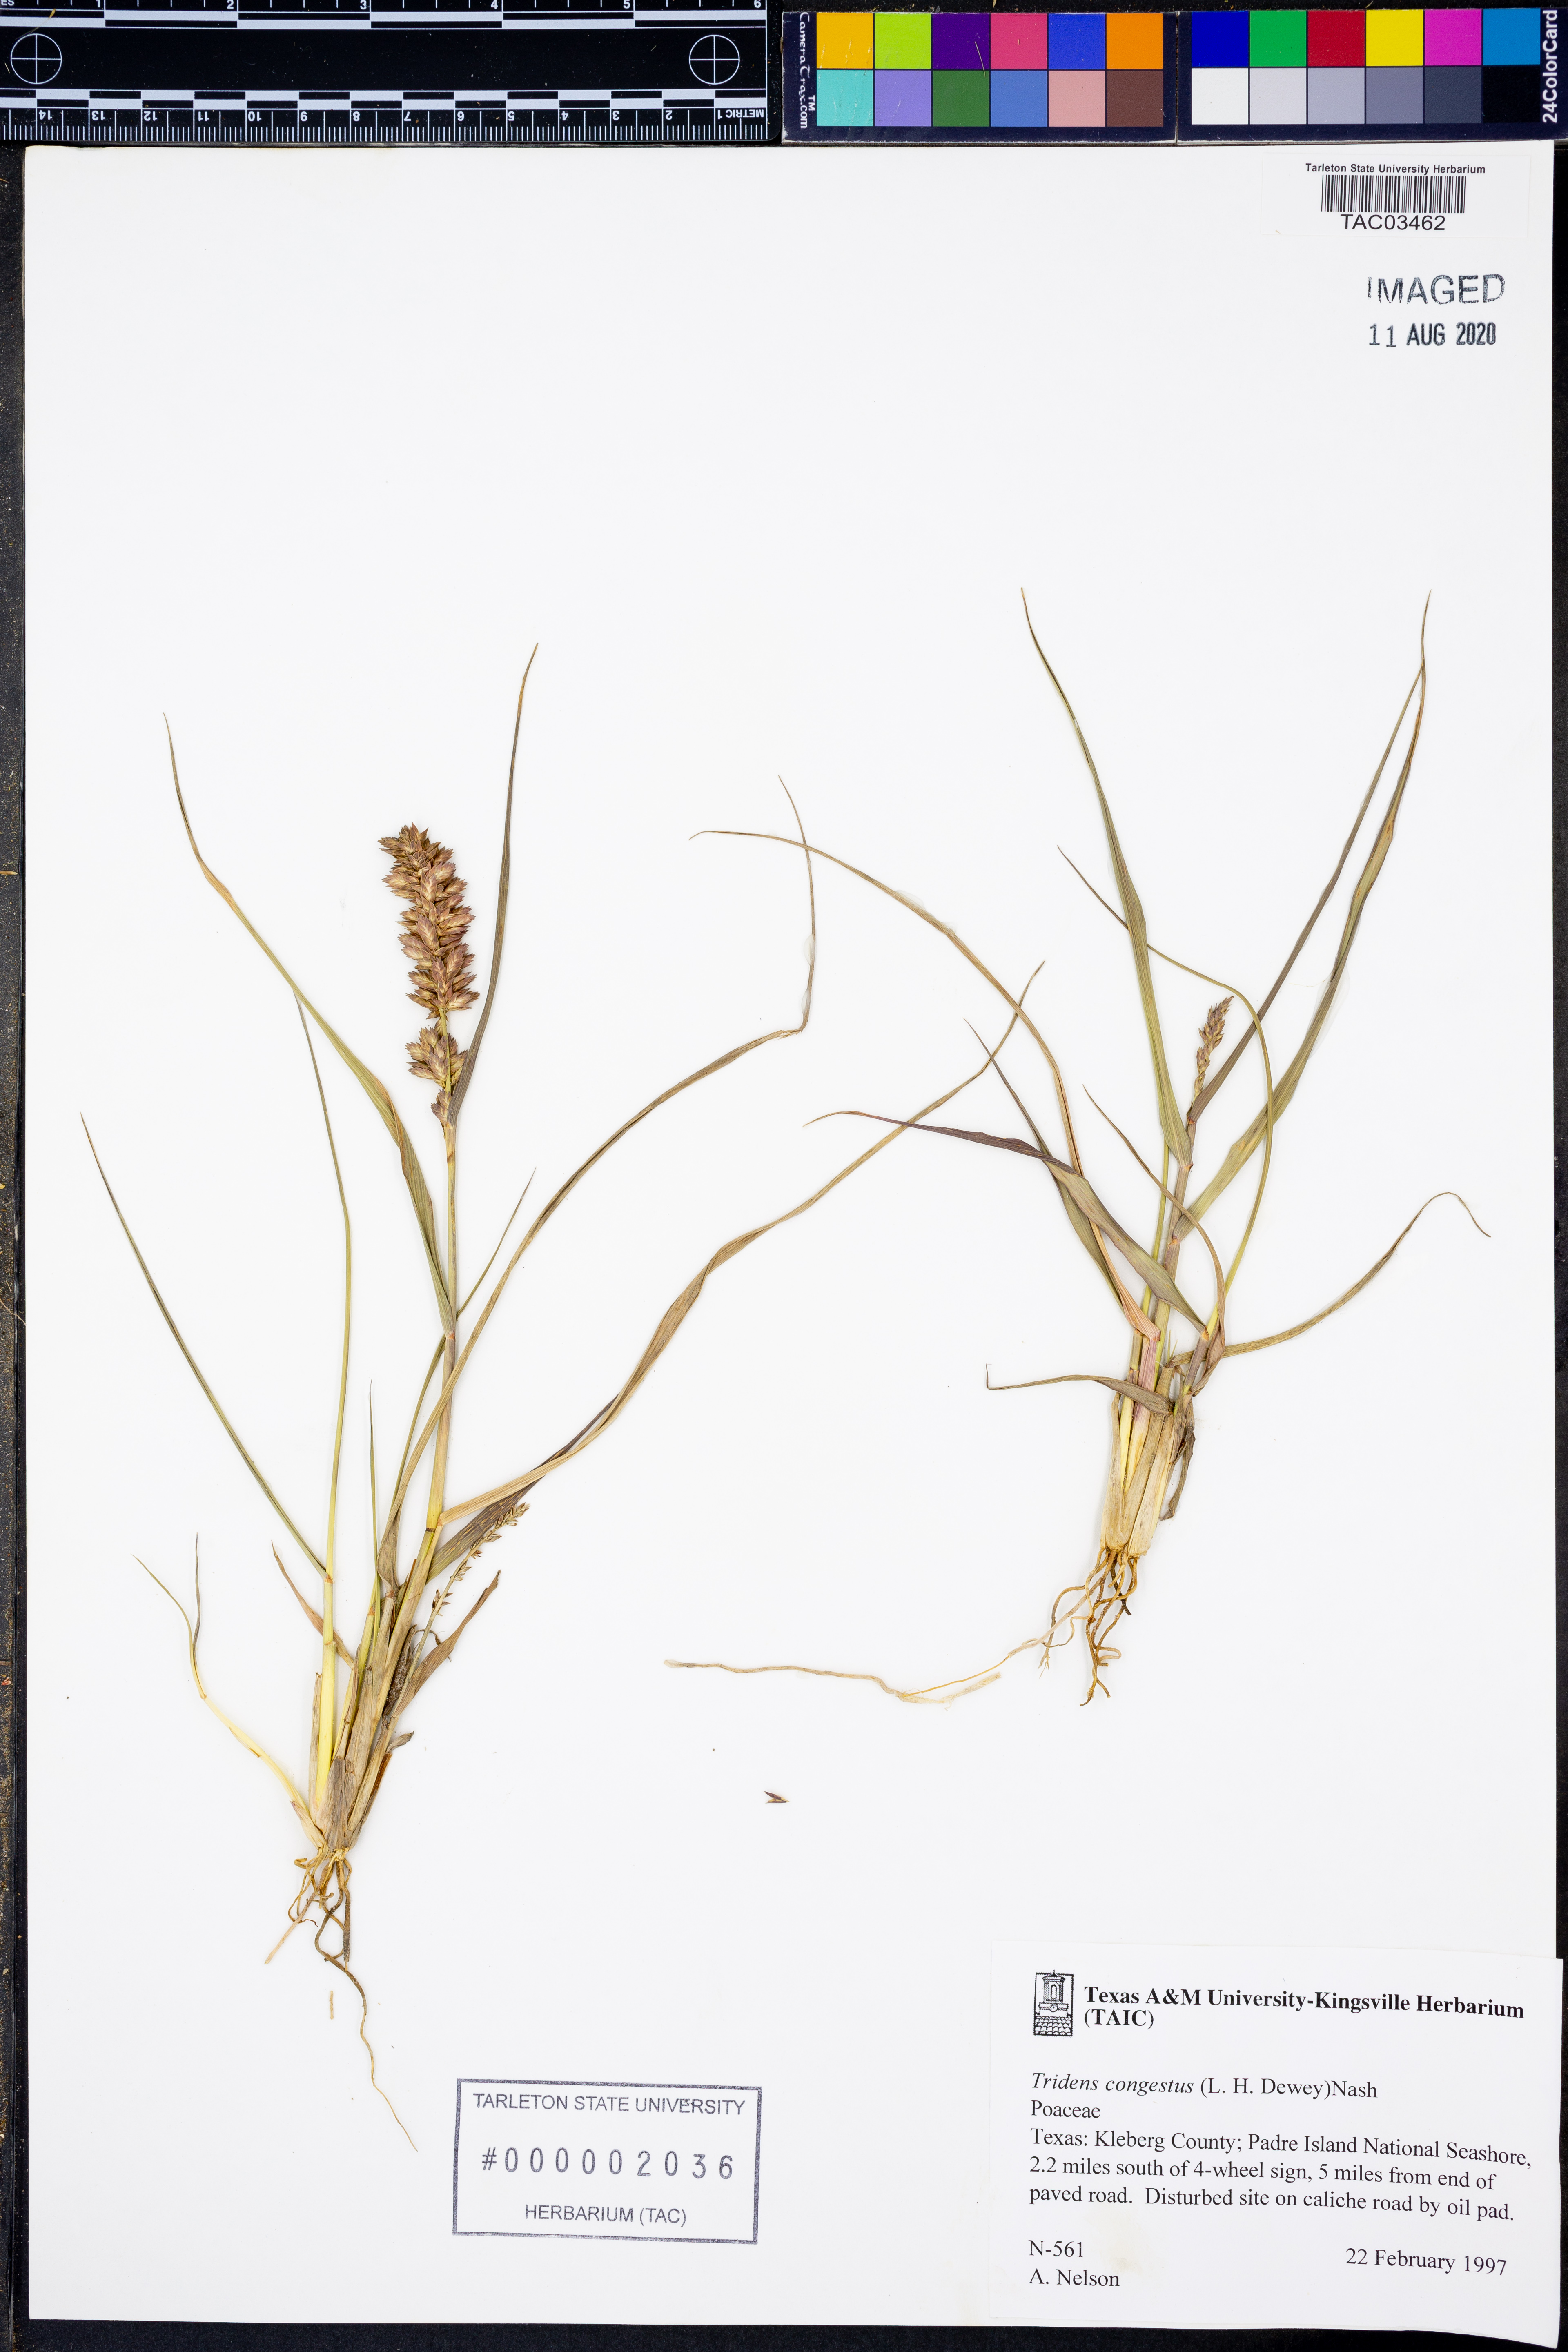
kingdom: Plantae
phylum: Tracheophyta
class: Liliopsida
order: Poales
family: Poaceae
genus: Tridens
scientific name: Tridens congestus
